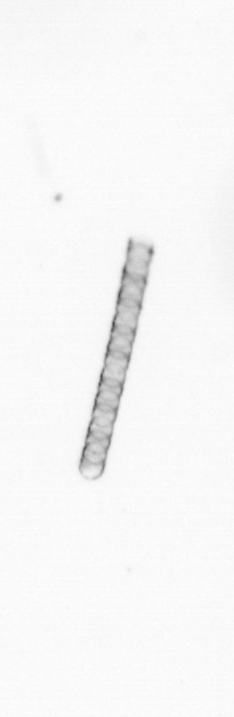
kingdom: Chromista
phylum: Ochrophyta
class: Bacillariophyceae
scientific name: Bacillariophyceae
